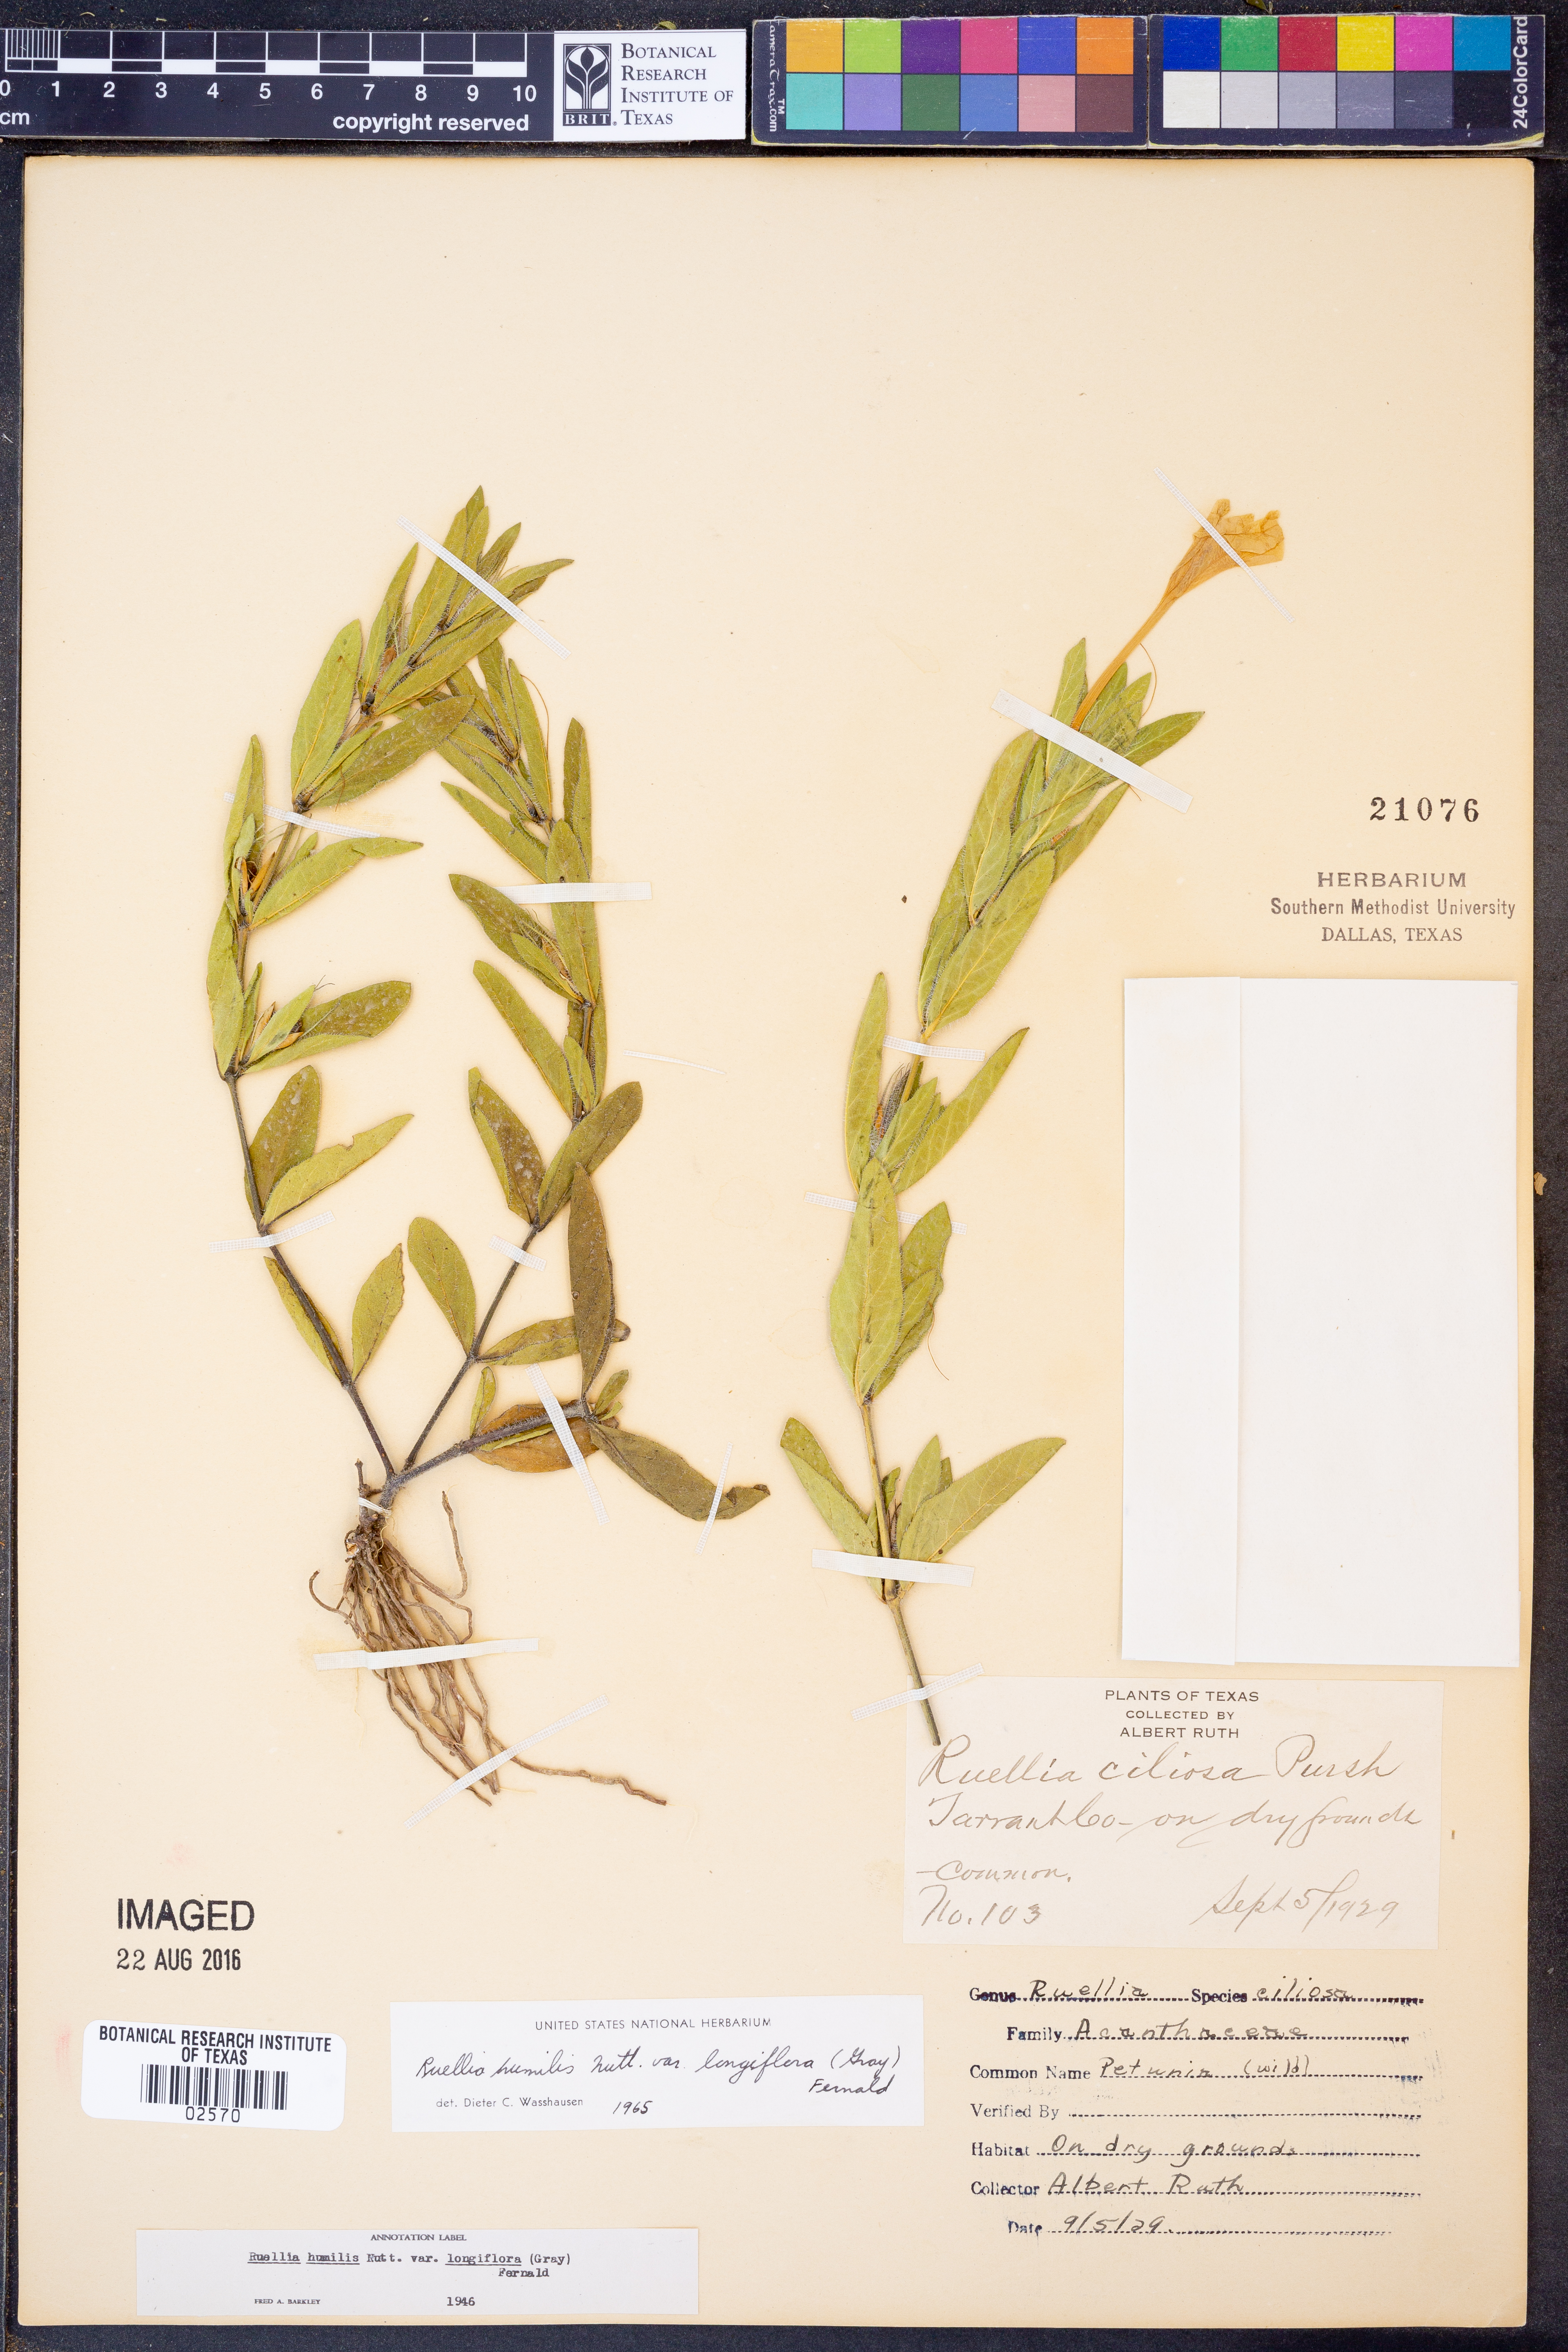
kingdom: Plantae
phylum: Tracheophyta
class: Magnoliopsida
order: Lamiales
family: Acanthaceae
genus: Ruellia
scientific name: Ruellia humilis
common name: Fringe-leaf ruellia
